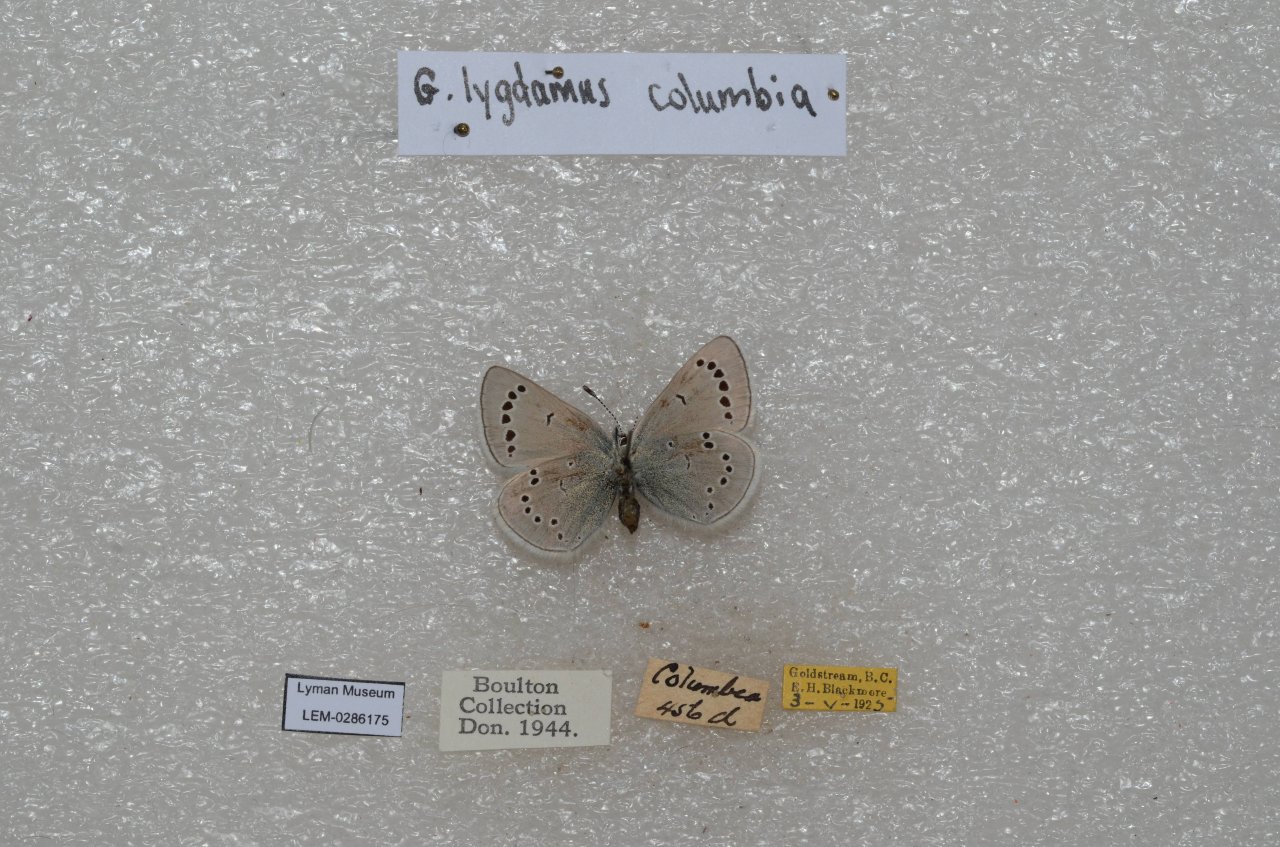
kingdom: Animalia
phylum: Arthropoda
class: Insecta
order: Lepidoptera
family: Lycaenidae
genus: Glaucopsyche
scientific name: Glaucopsyche lygdamus
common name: Silvery Blue
